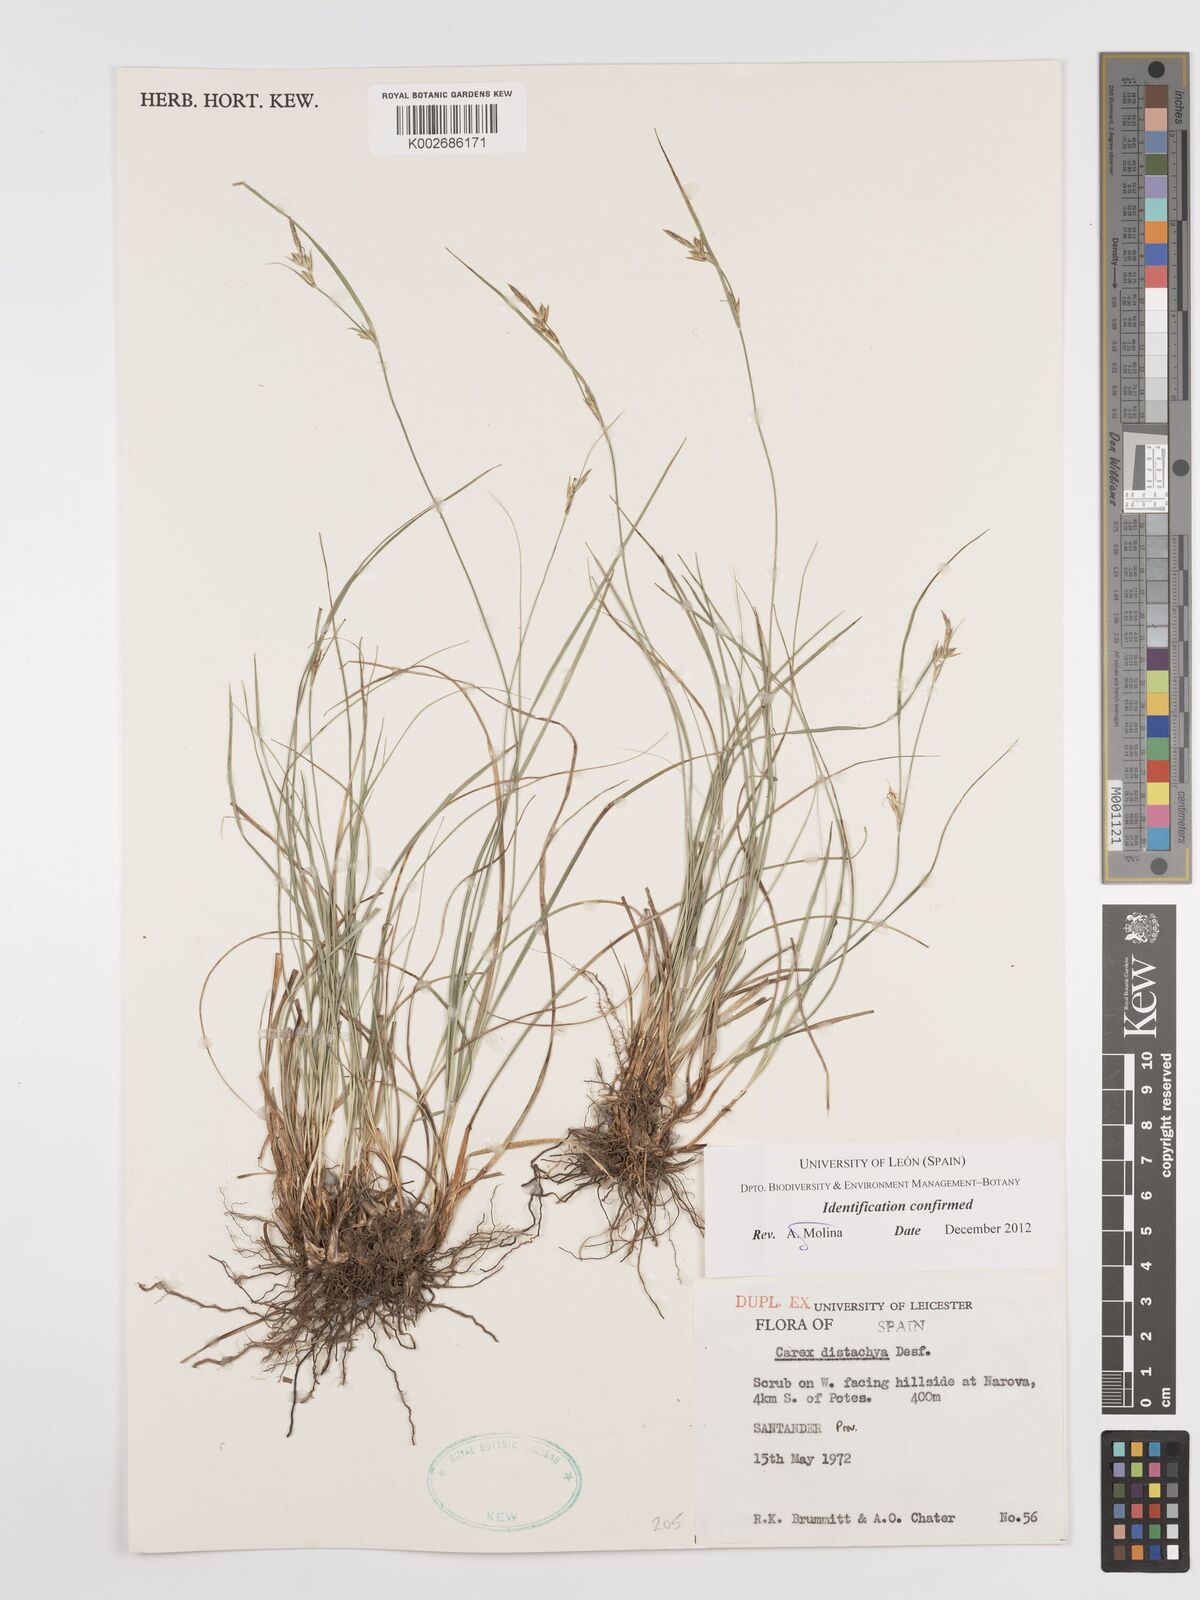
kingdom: Plantae
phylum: Tracheophyta
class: Liliopsida
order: Poales
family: Cyperaceae
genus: Carex
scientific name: Carex distachya
